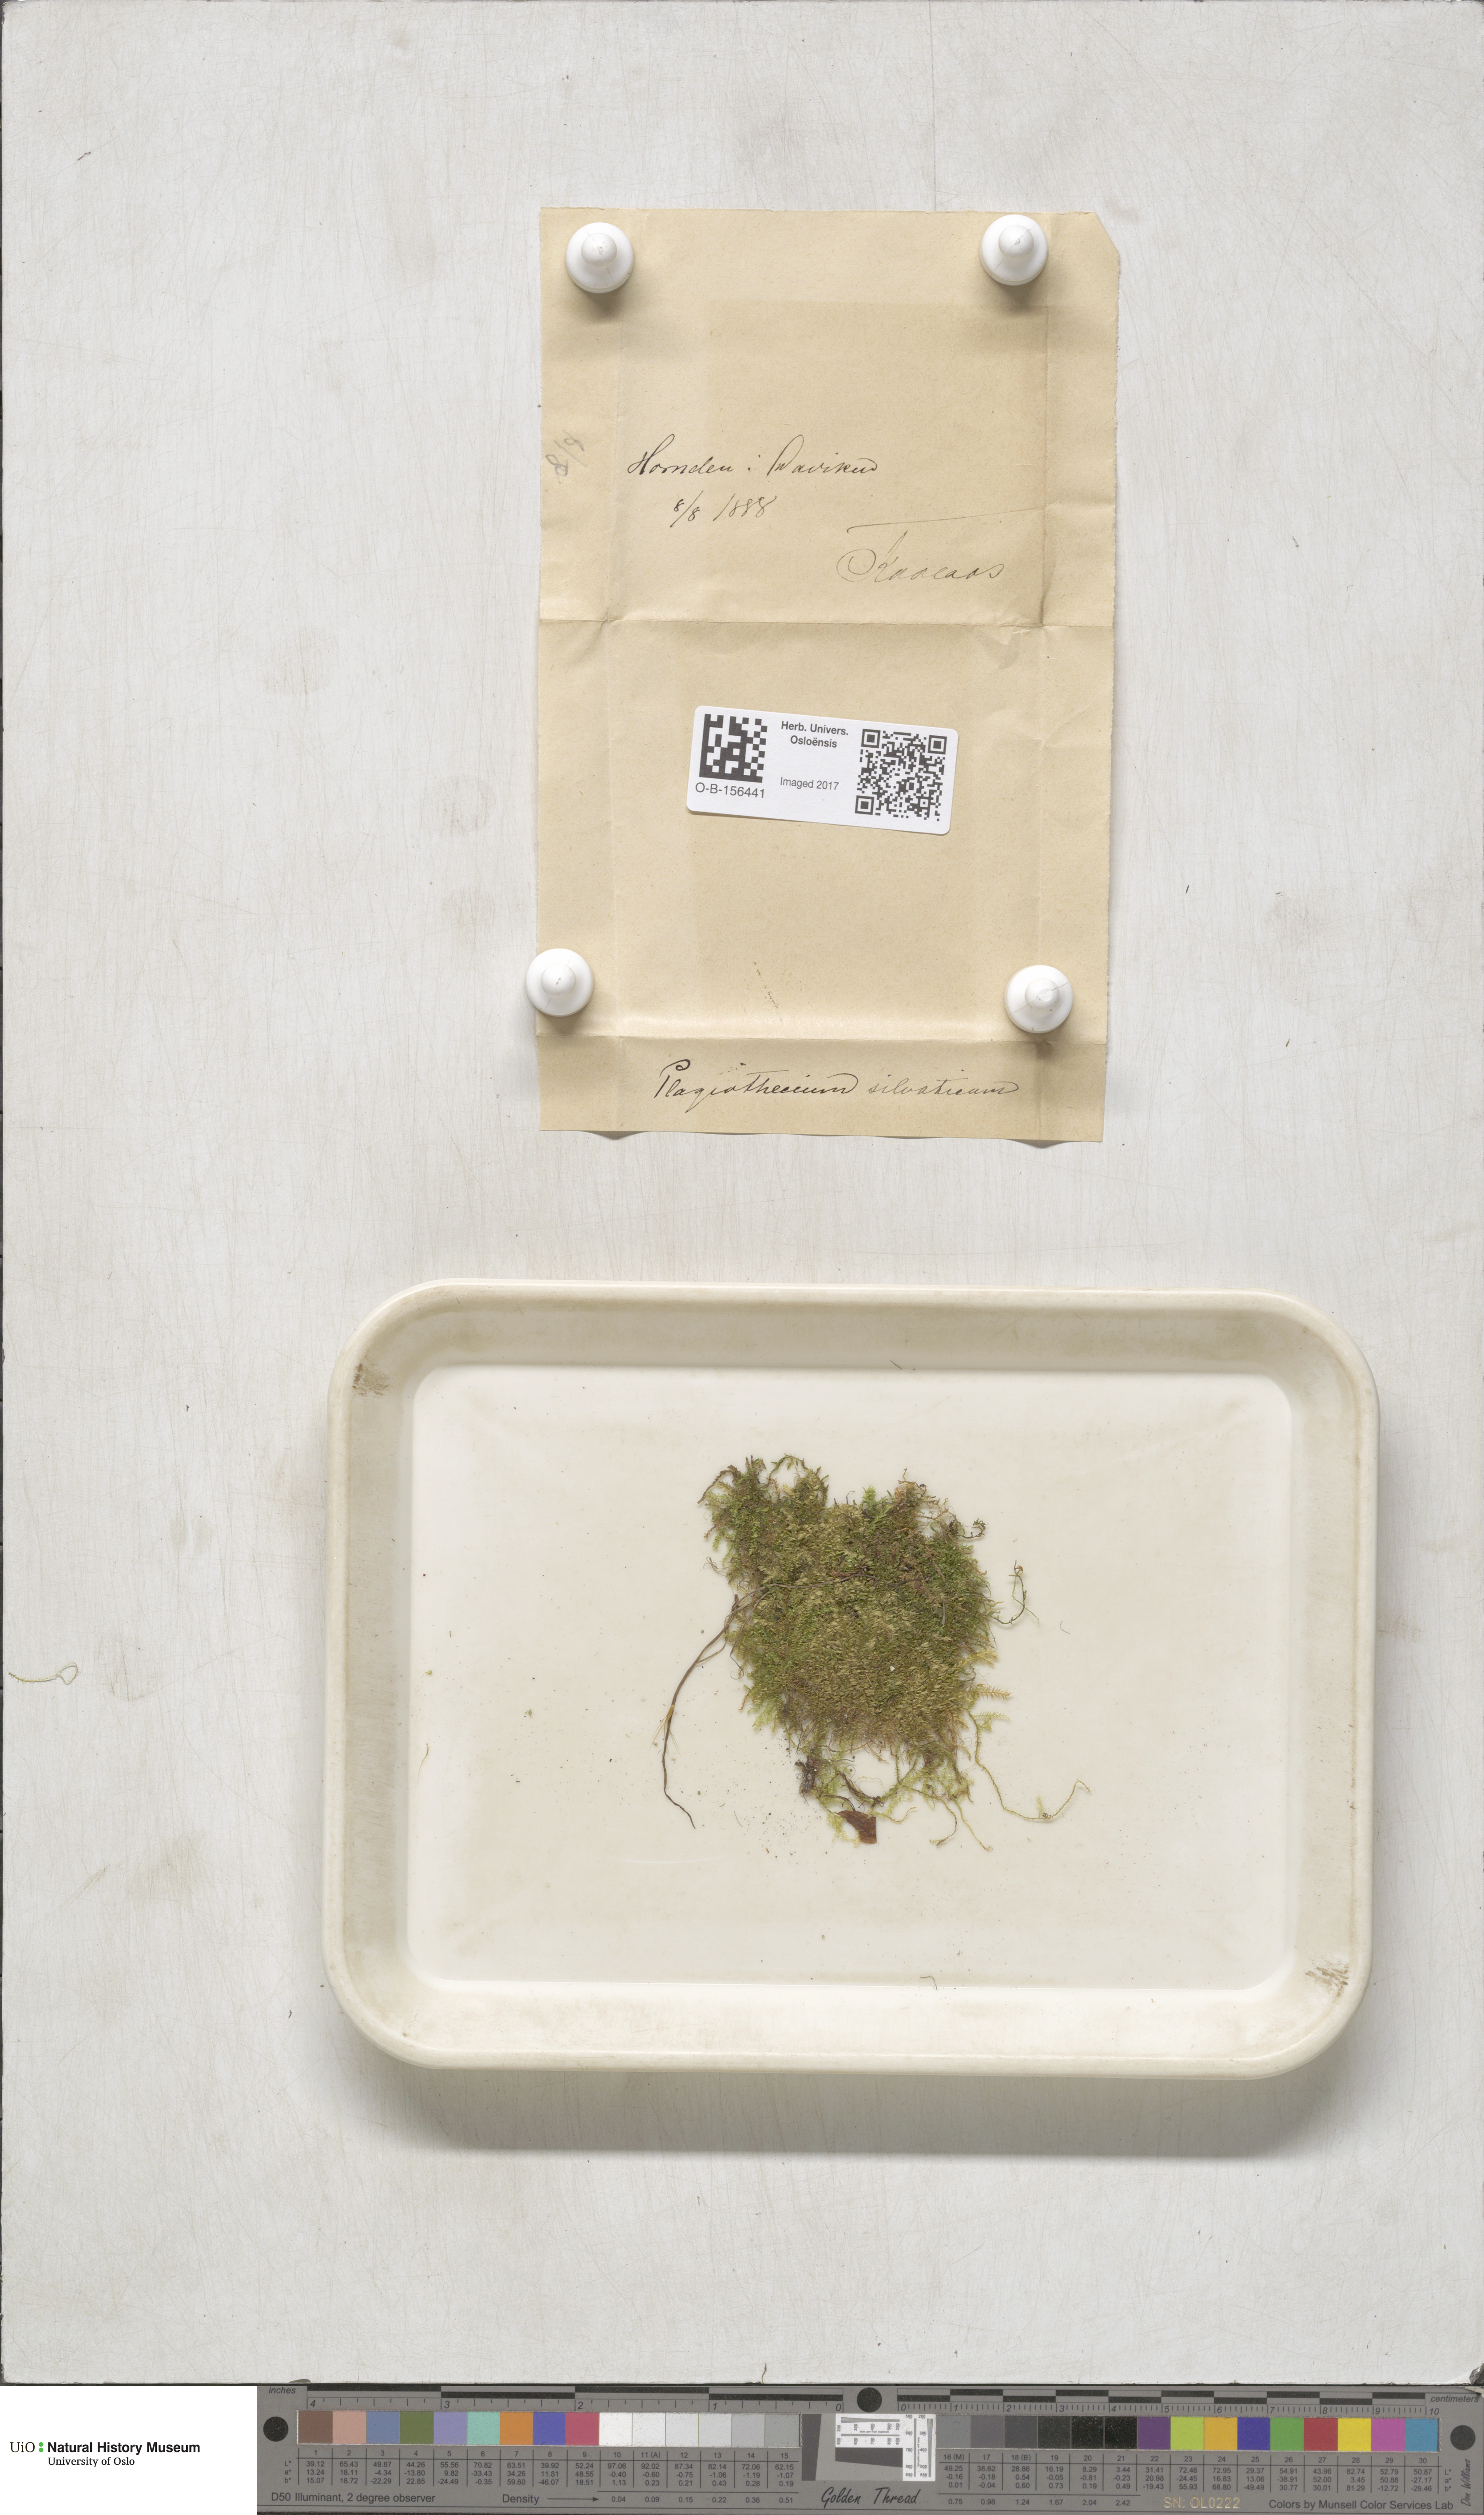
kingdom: Plantae
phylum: Bryophyta
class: Bryopsida
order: Hypnales
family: Plagiotheciaceae
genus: Plagiothecium
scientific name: Plagiothecium nemorale
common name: Woodsy silk-moss
